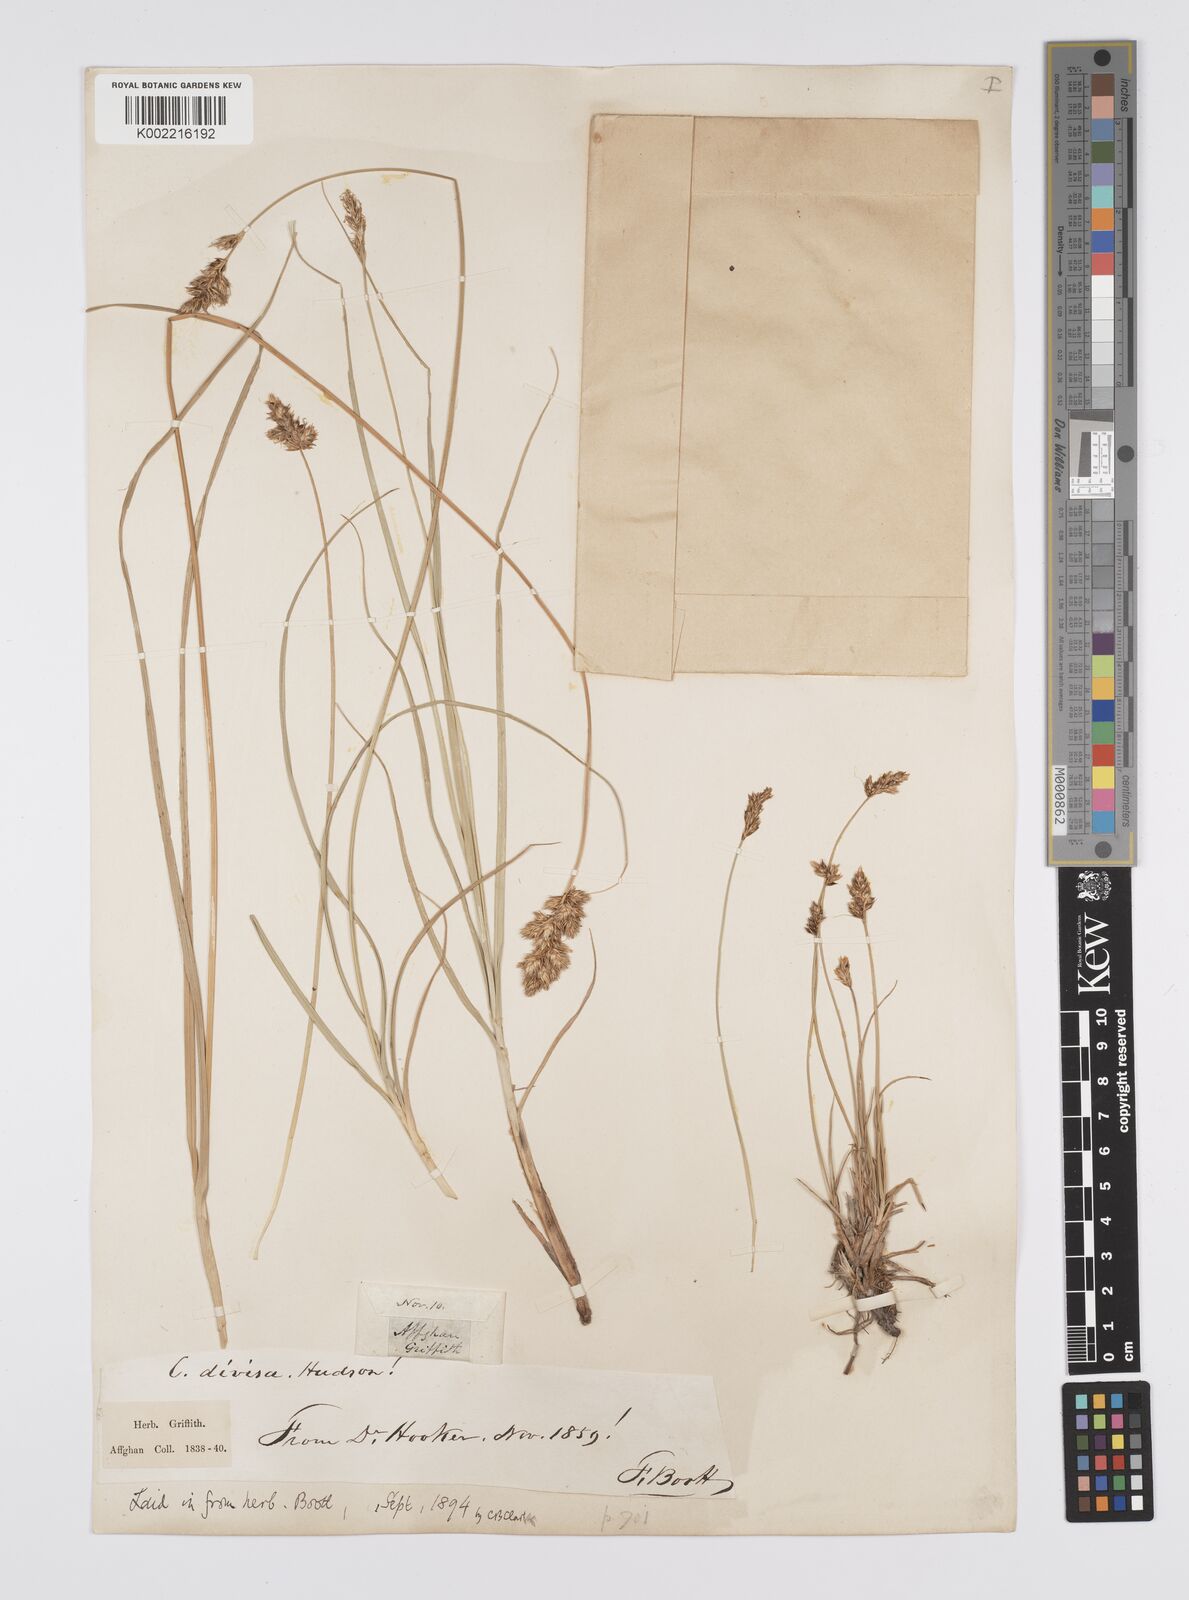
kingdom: Plantae
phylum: Tracheophyta
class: Liliopsida
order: Poales
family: Cyperaceae
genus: Carex
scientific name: Carex divisa
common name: Divided sedge
